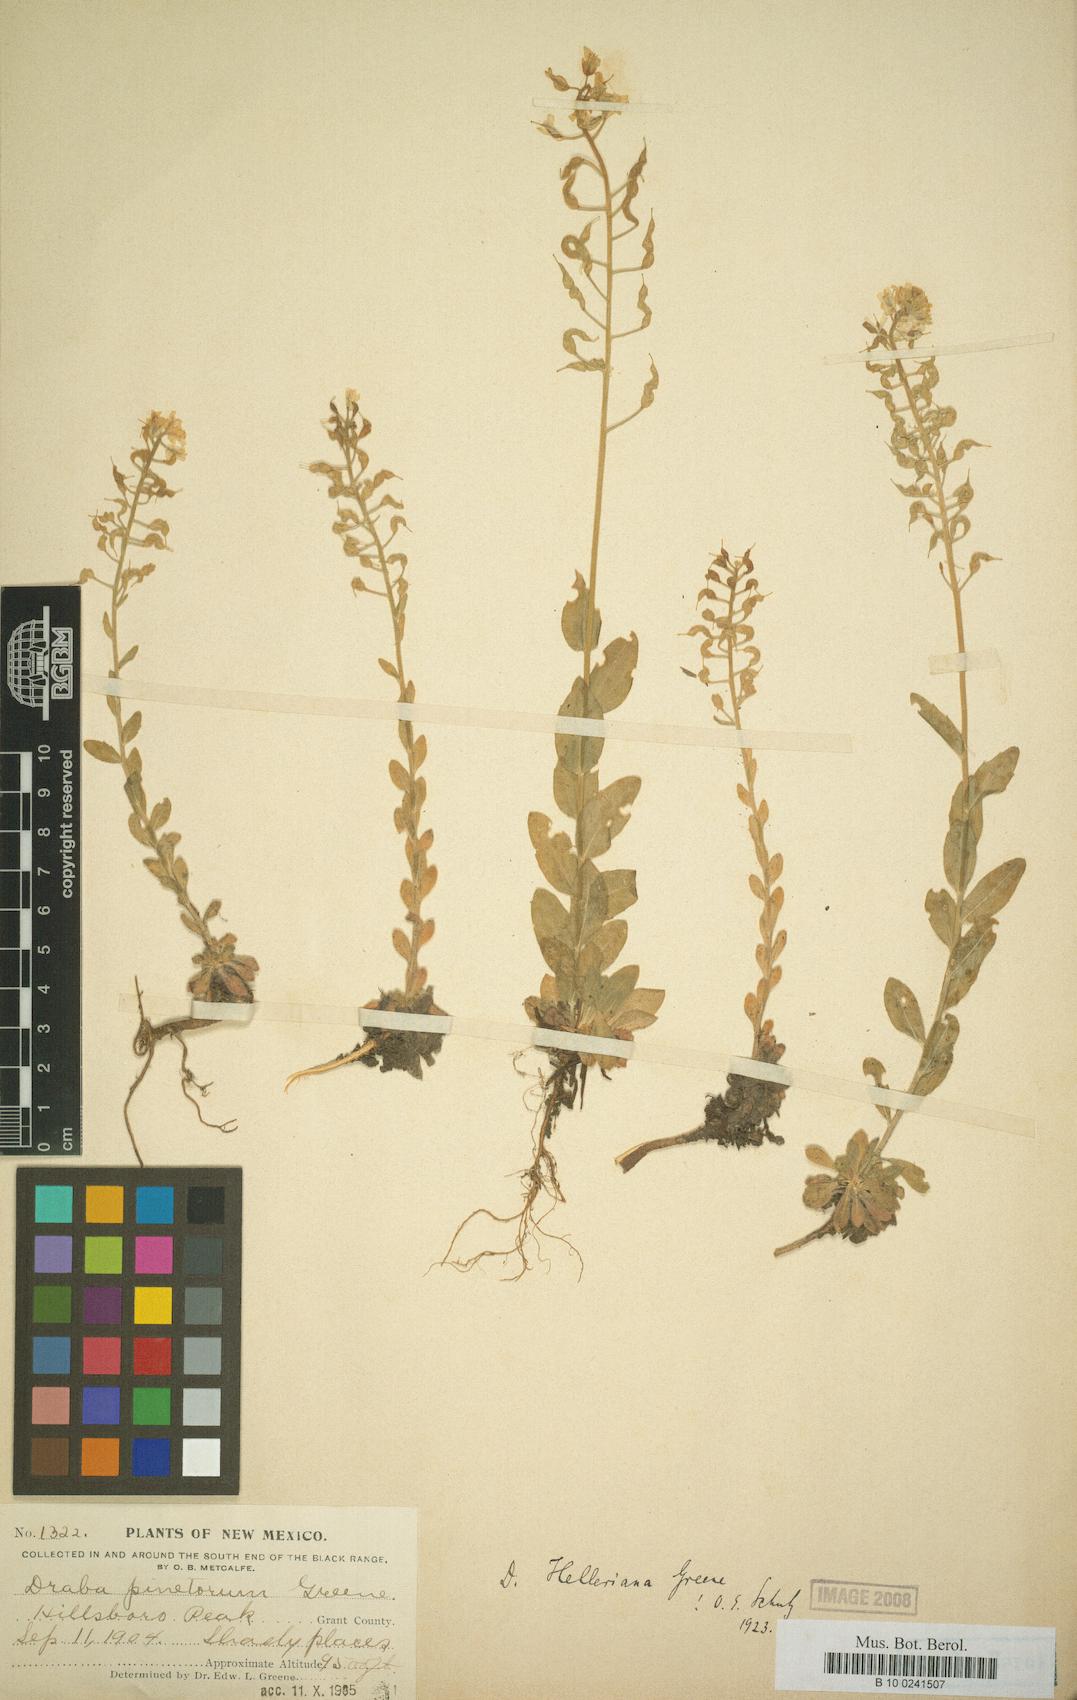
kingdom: Plantae
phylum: Tracheophyta
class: Magnoliopsida
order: Brassicales
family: Brassicaceae
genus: Draba
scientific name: Draba helleriana
